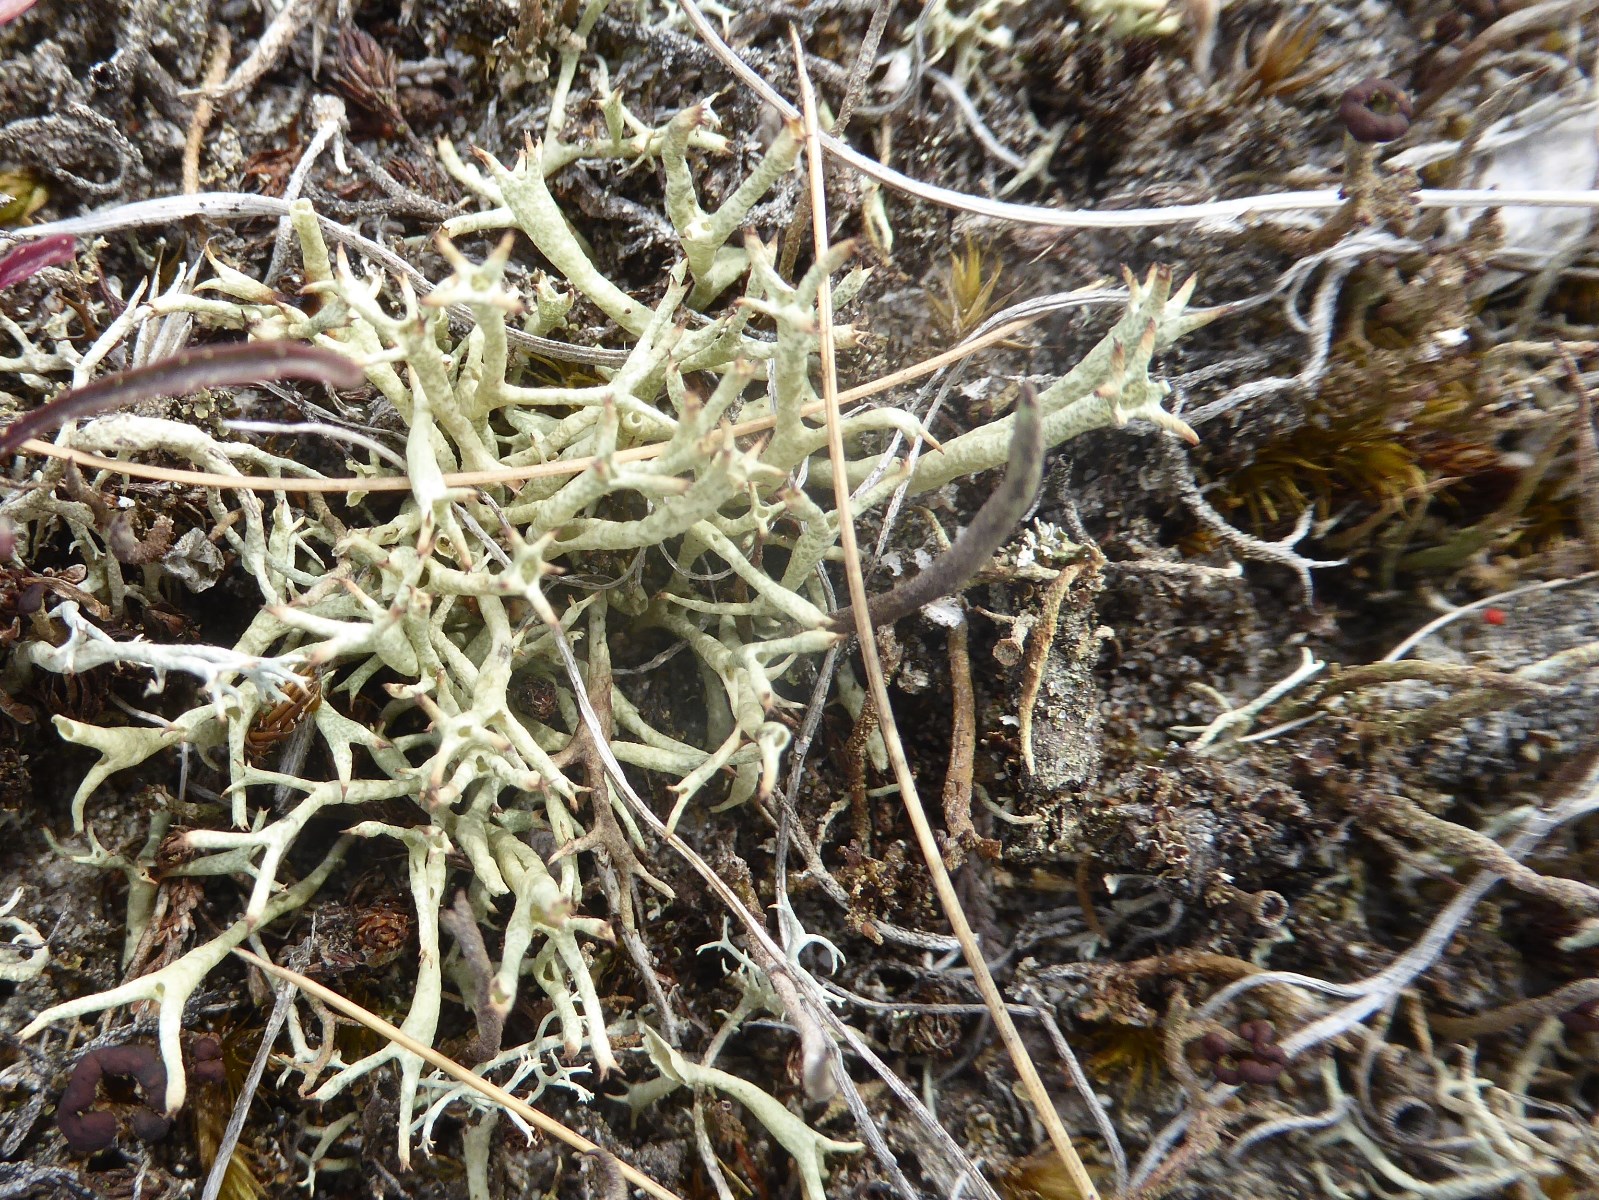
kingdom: Fungi
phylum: Ascomycota
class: Lecanoromycetes
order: Lecanorales
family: Cladoniaceae
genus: Cladonia
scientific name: Cladonia uncialis
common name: pigget bægerlav
